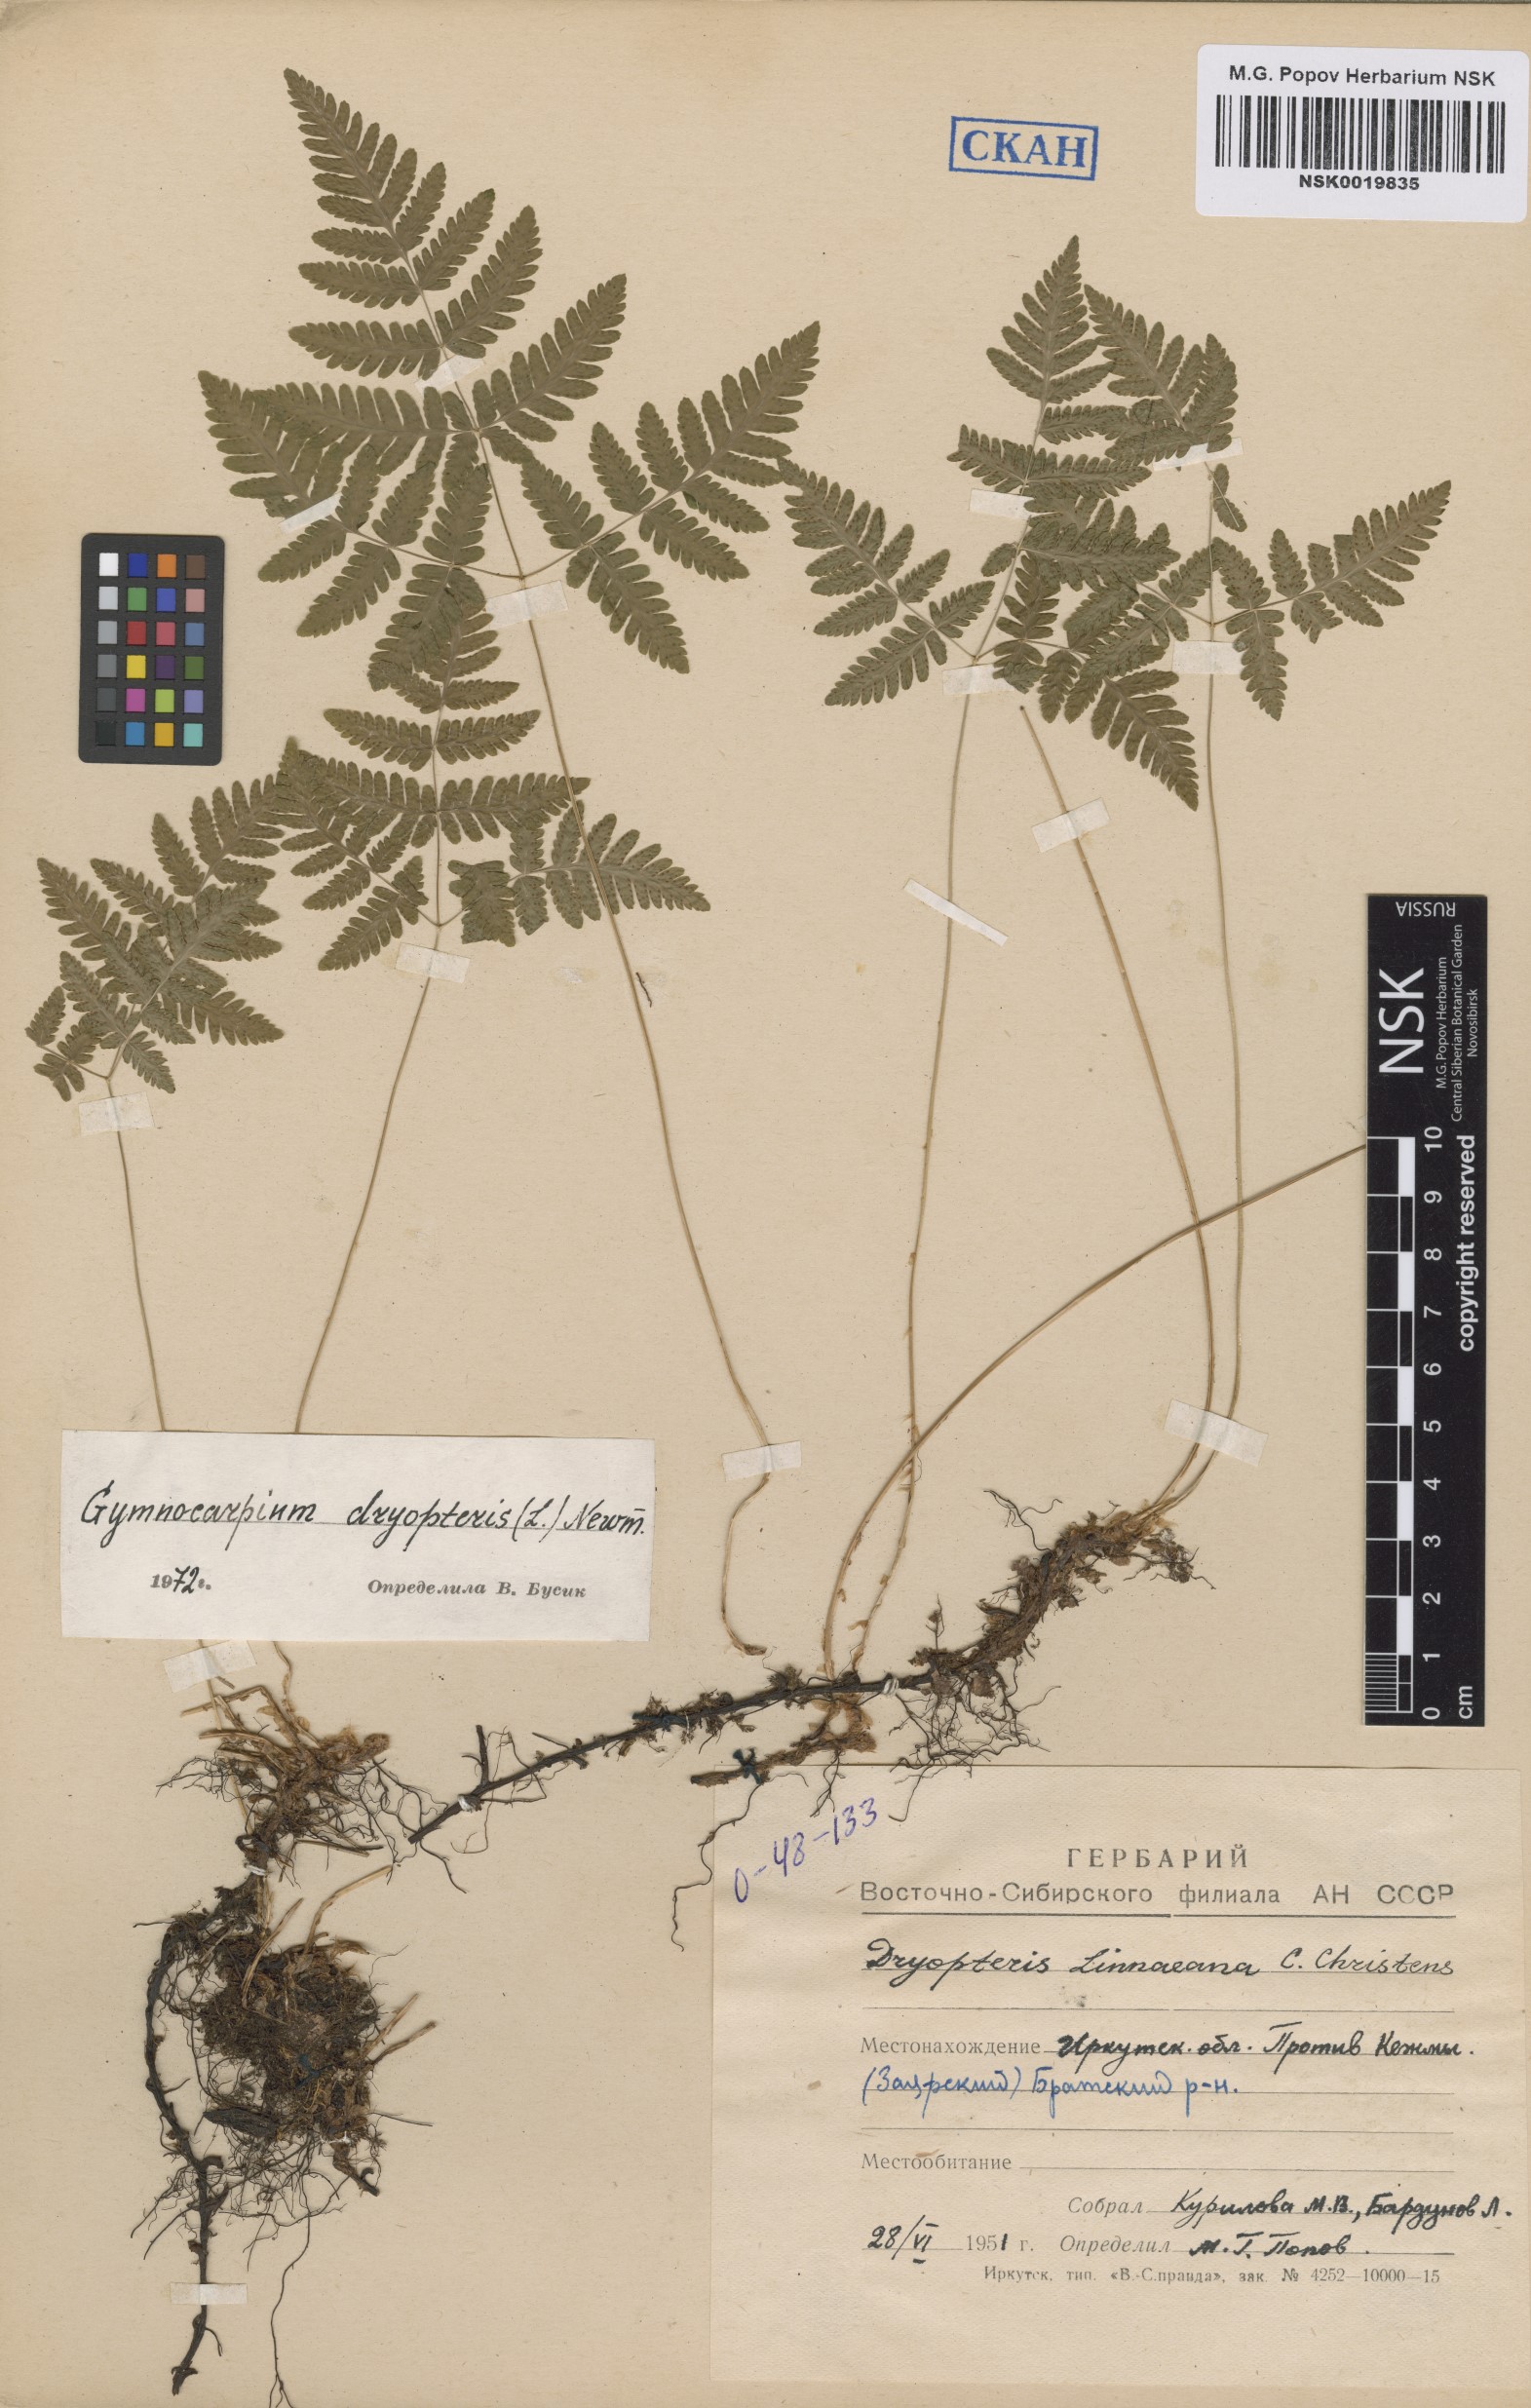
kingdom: Plantae
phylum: Tracheophyta
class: Polypodiopsida
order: Polypodiales
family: Cystopteridaceae
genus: Gymnocarpium
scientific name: Gymnocarpium dryopteris
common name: Oak fern
